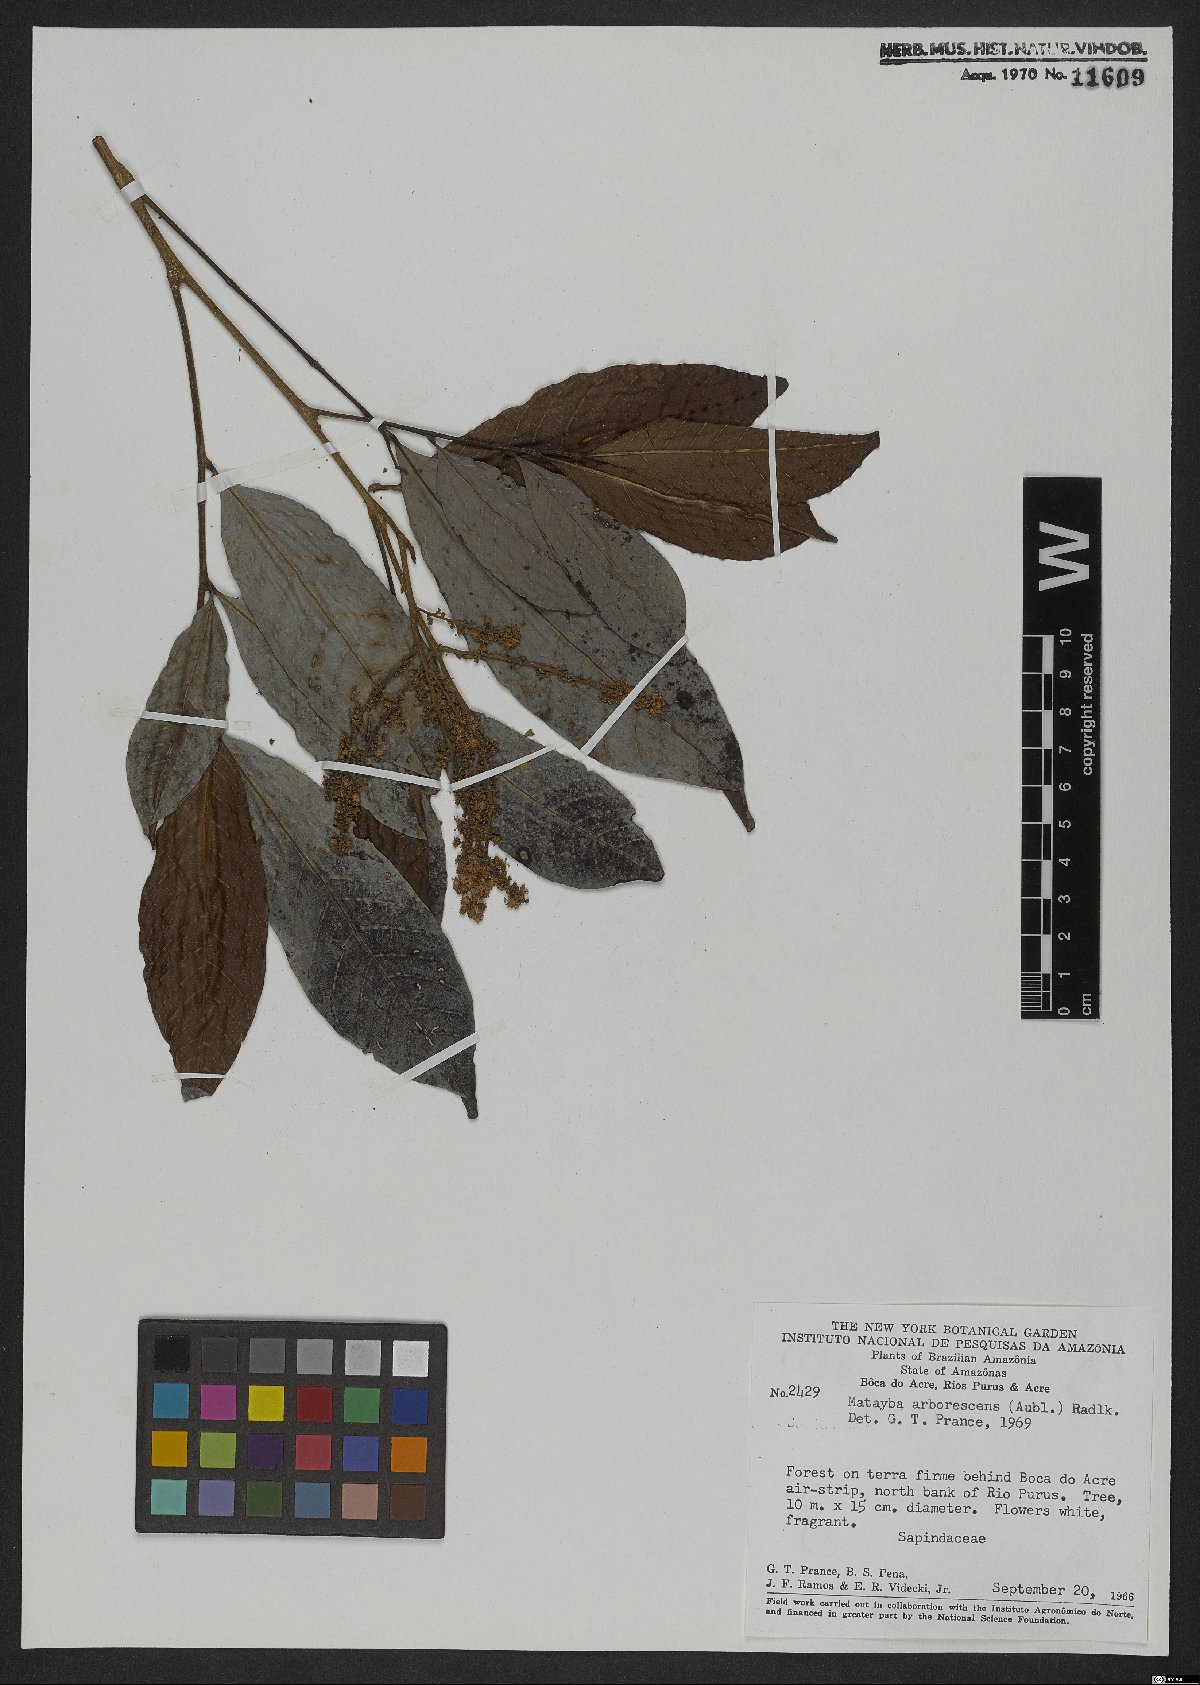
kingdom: Plantae
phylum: Tracheophyta
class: Magnoliopsida
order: Sapindales
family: Sapindaceae
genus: Matayba
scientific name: Matayba arborescens
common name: Arborescent matayba
